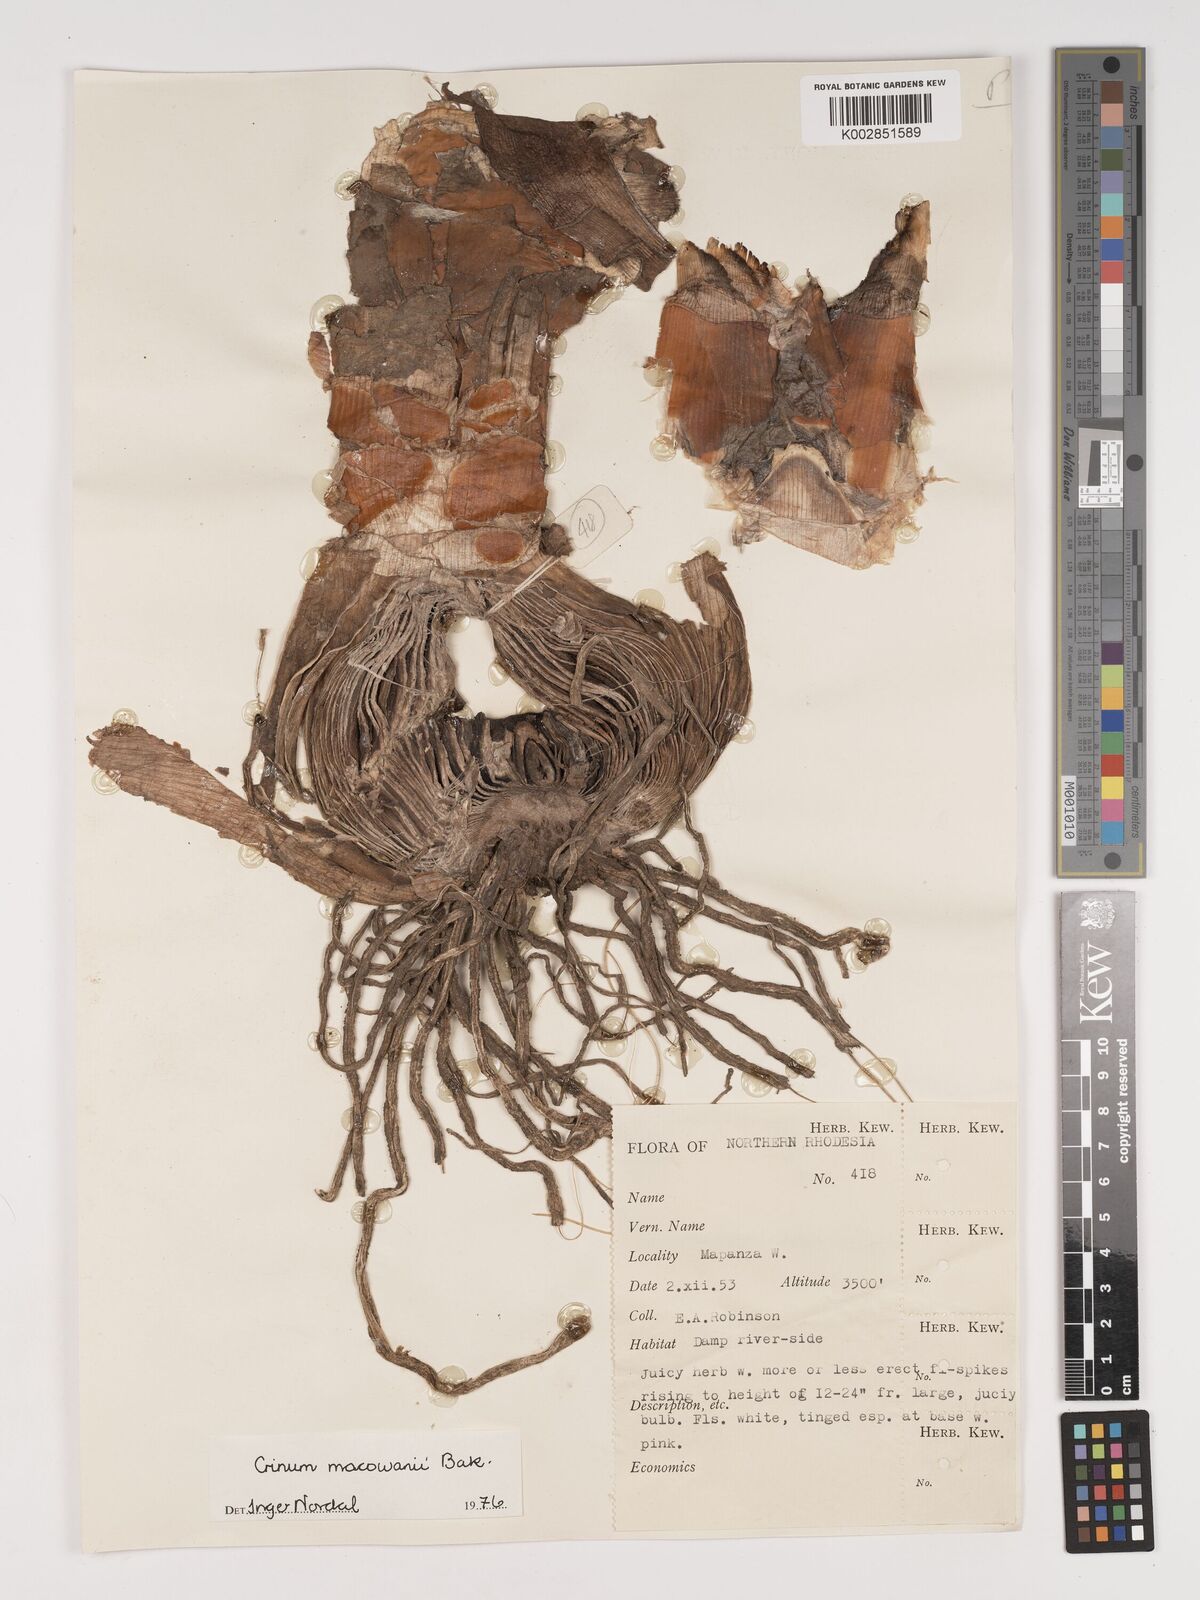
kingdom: Plantae
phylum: Tracheophyta
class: Liliopsida
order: Asparagales
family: Amaryllidaceae
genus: Crinum
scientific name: Crinum macowanii
